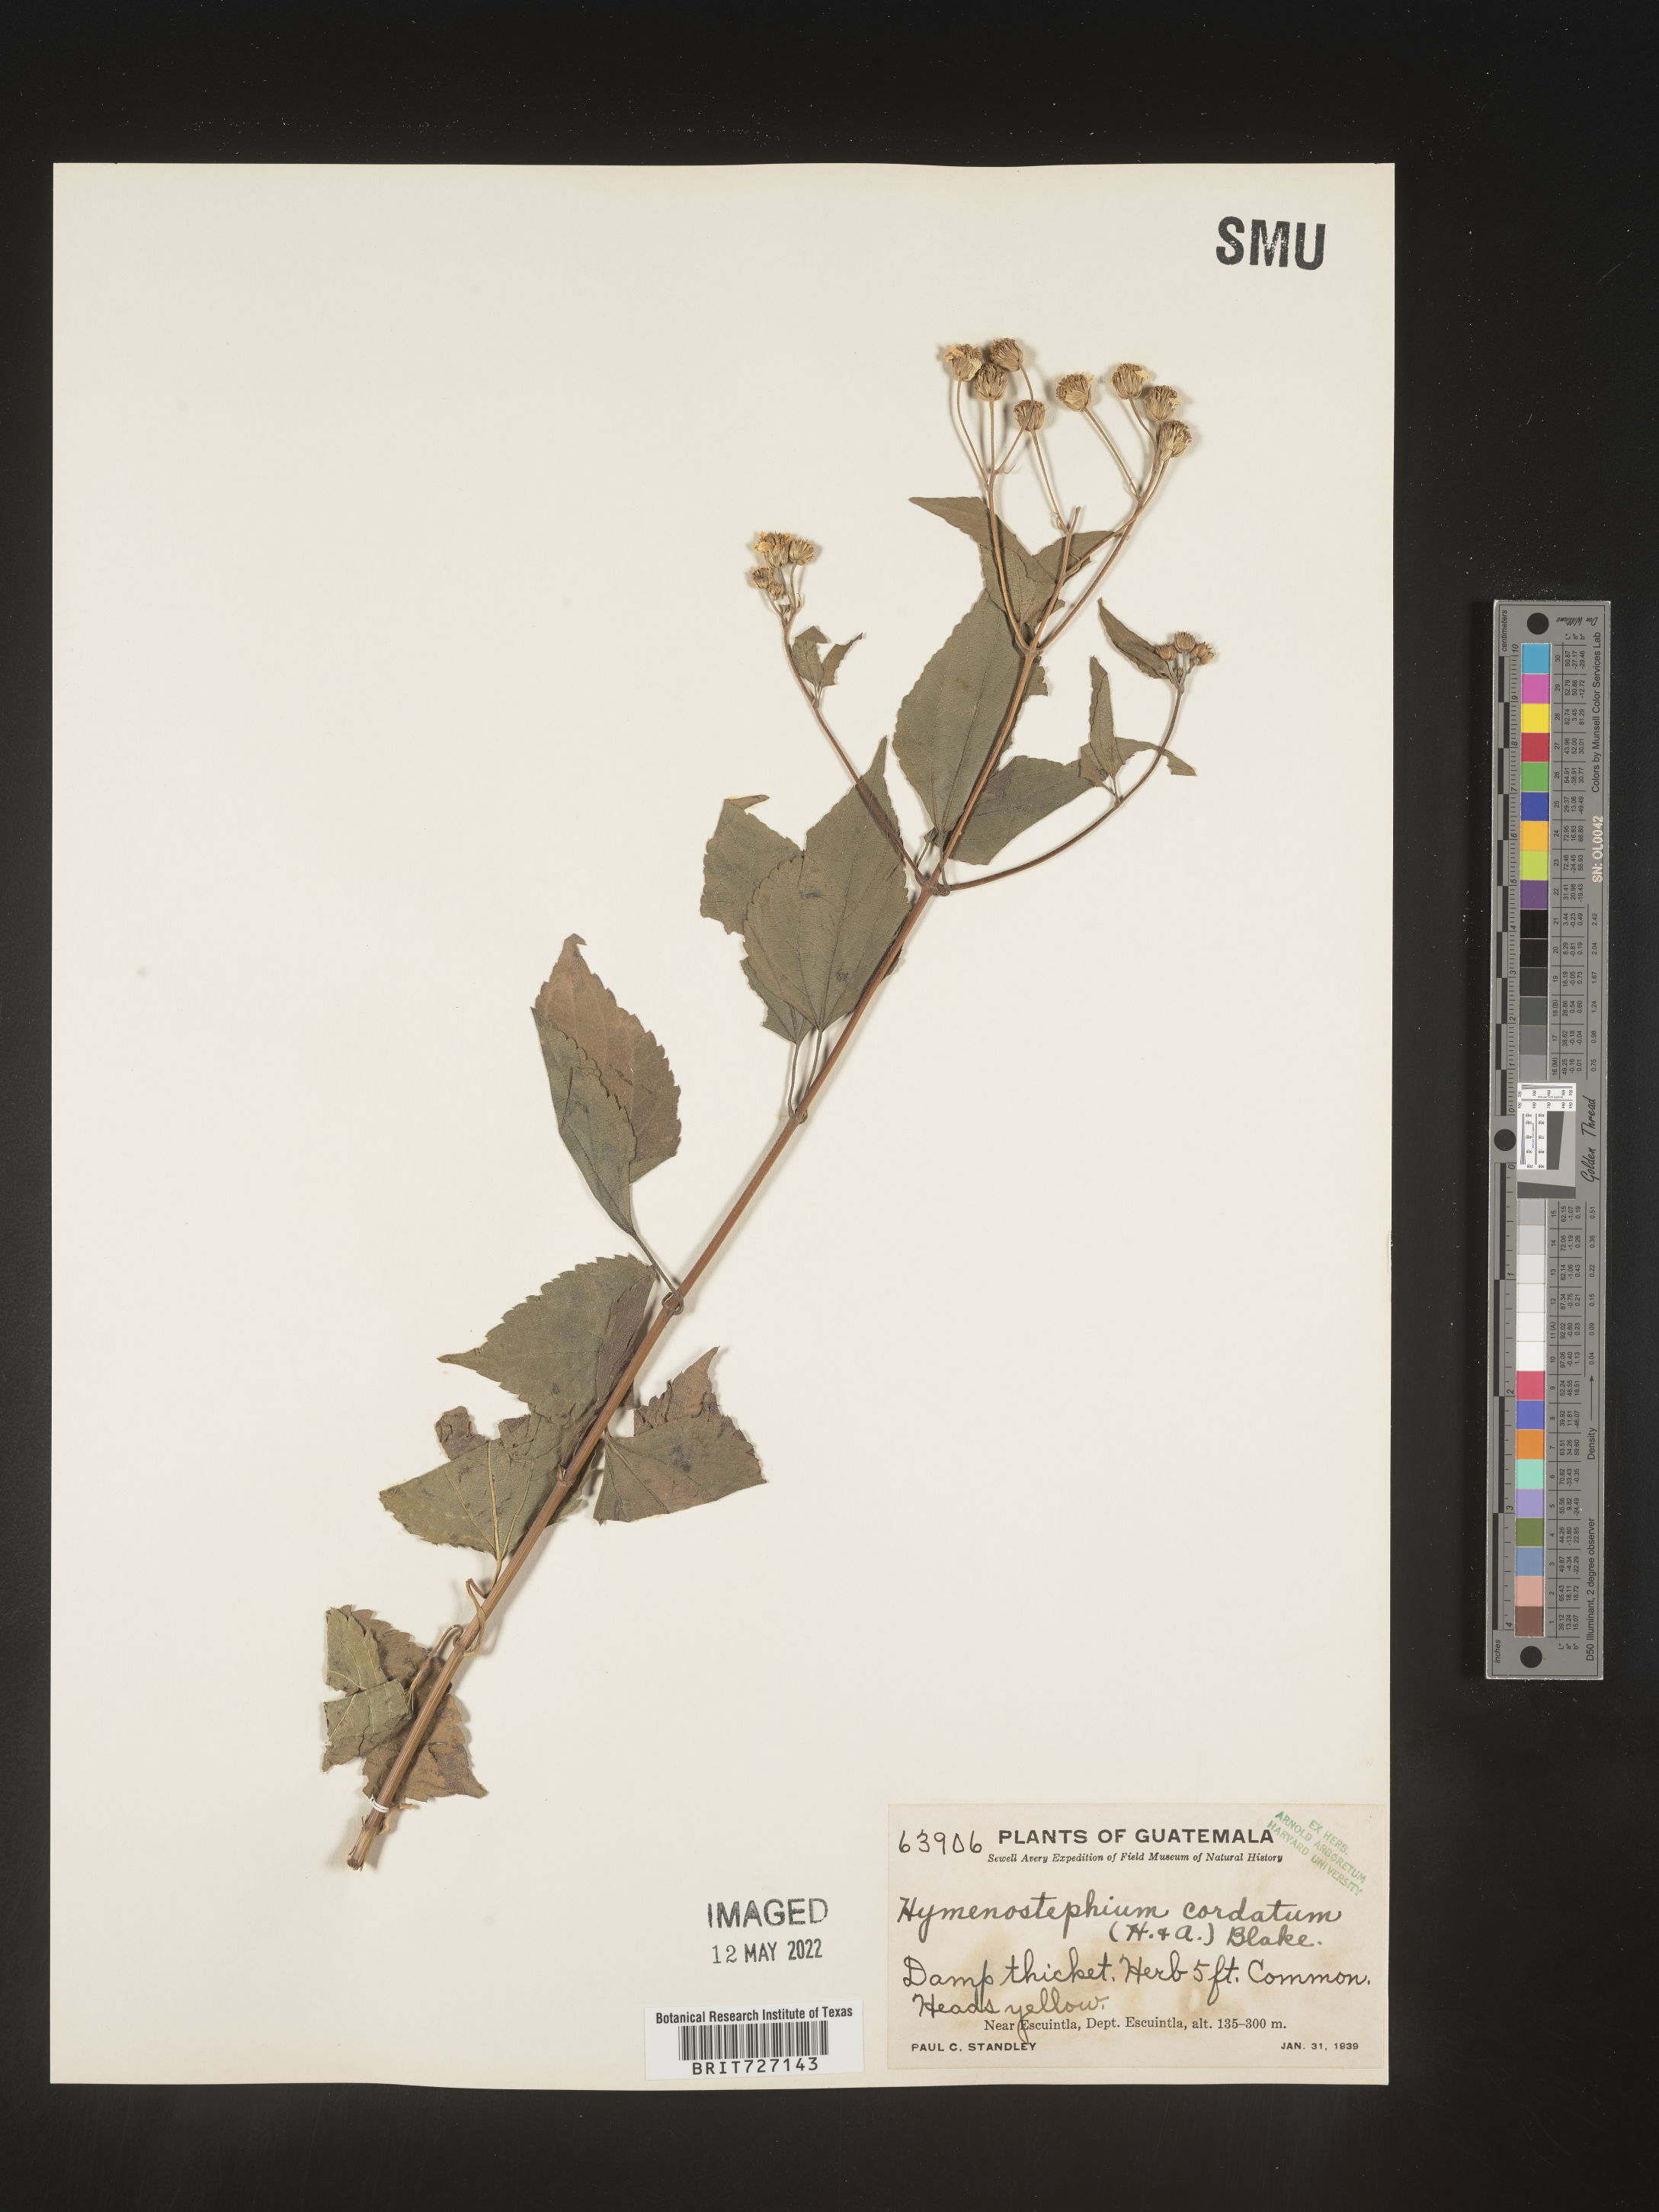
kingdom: Plantae
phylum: Tracheophyta
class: Magnoliopsida
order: Asterales
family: Asteraceae
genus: Hymenostephium
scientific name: Hymenostephium
